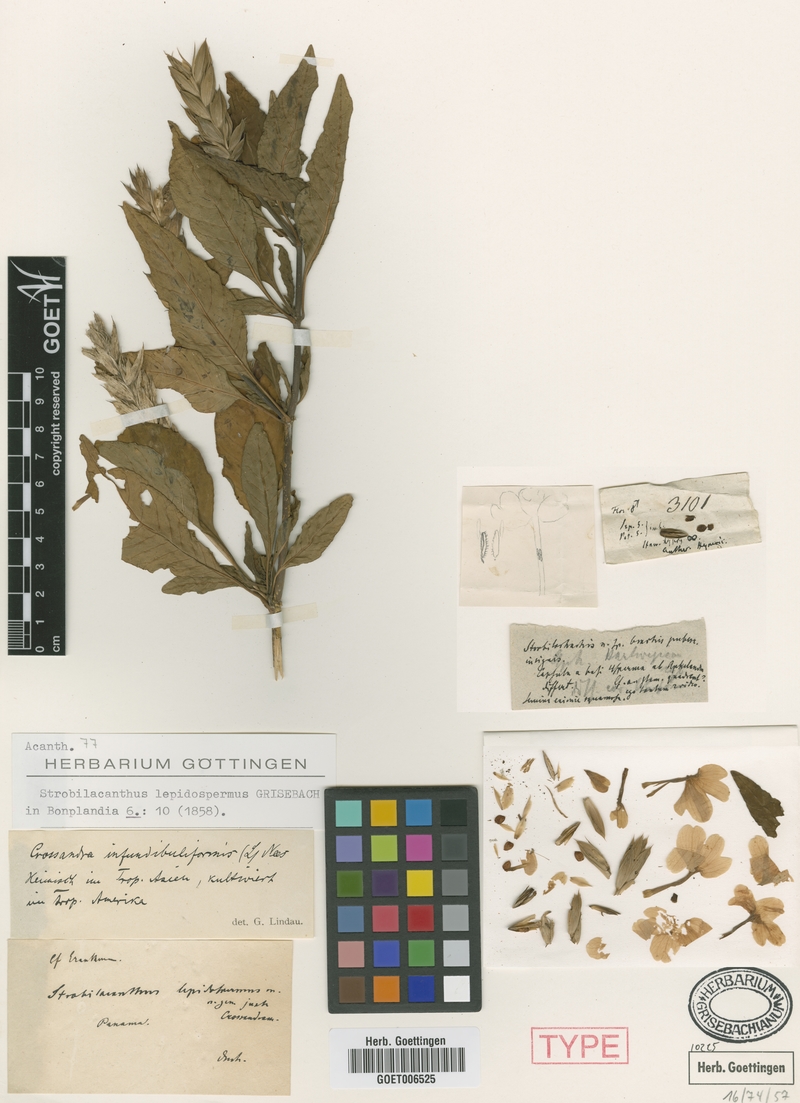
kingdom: Plantae
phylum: Tracheophyta
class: Magnoliopsida
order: Lamiales
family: Acanthaceae
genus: Crossandra
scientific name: Crossandra infundibuliformis
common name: Firecracker-flower
